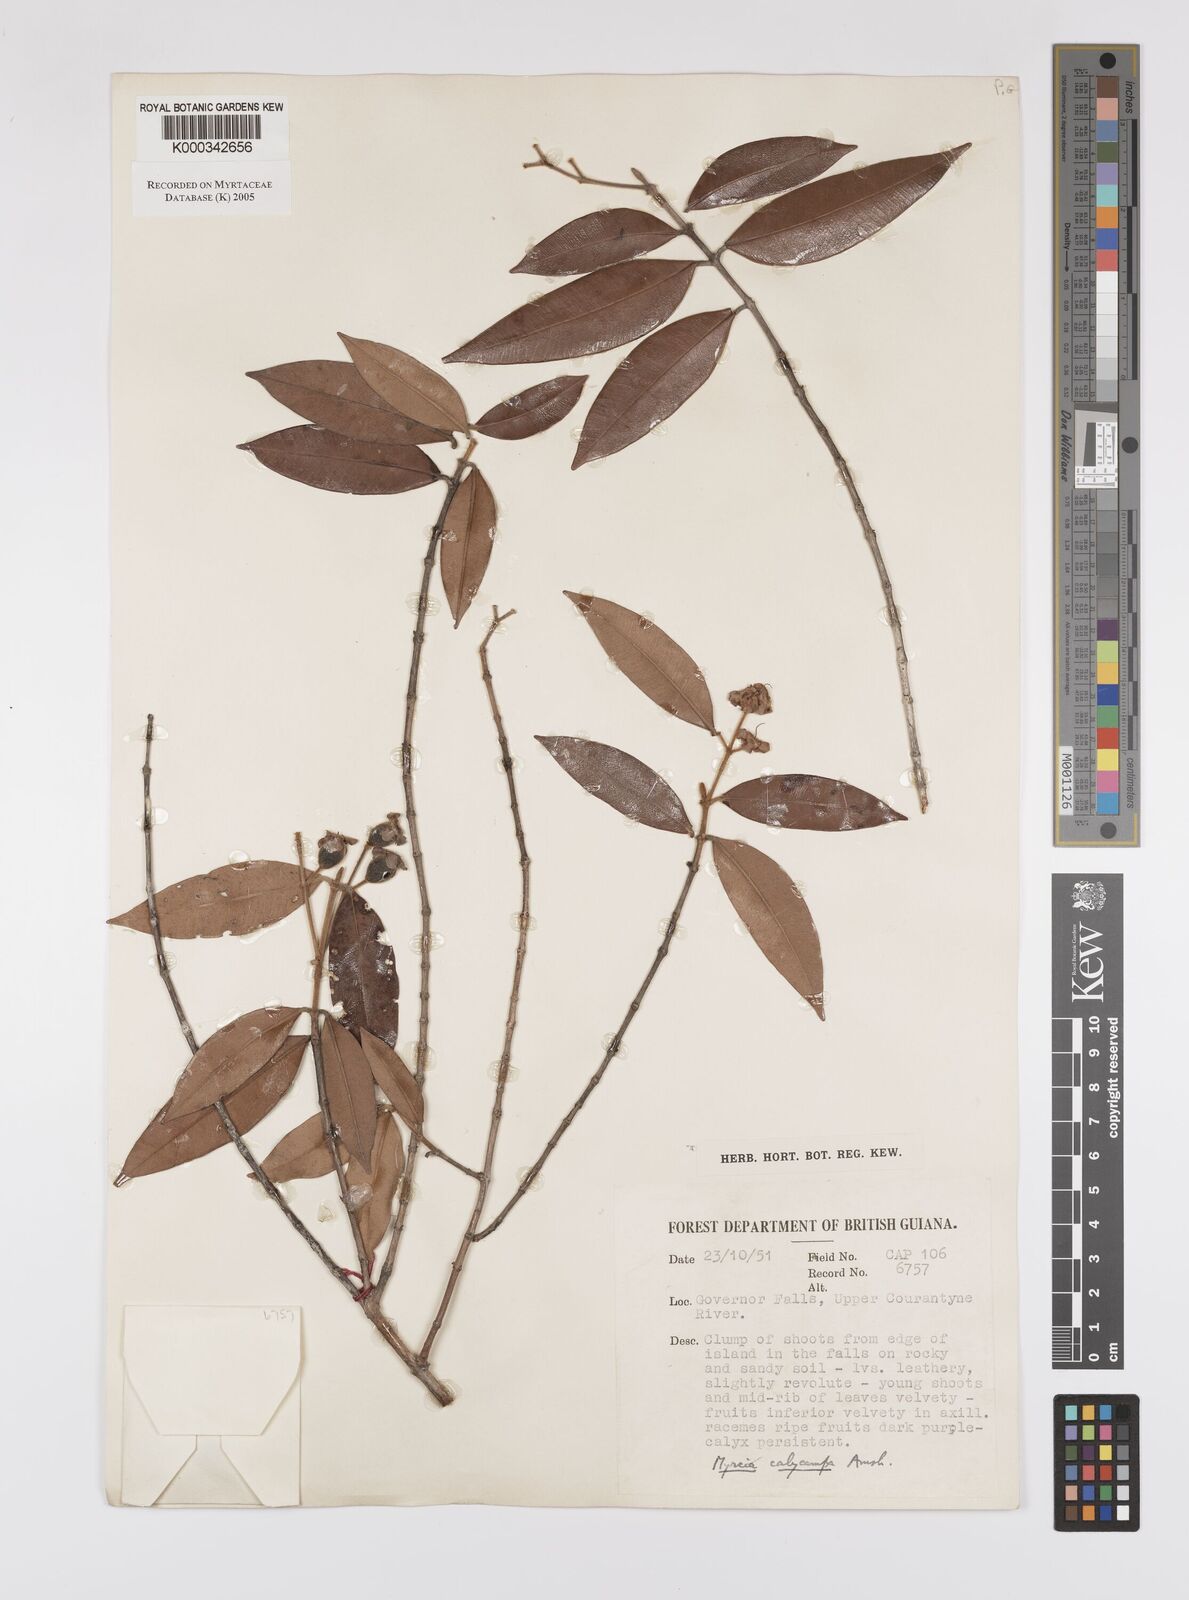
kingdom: Plantae
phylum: Tracheophyta
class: Magnoliopsida
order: Myrtales
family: Myrtaceae
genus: Myrcia
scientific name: Myrcia calycampa
